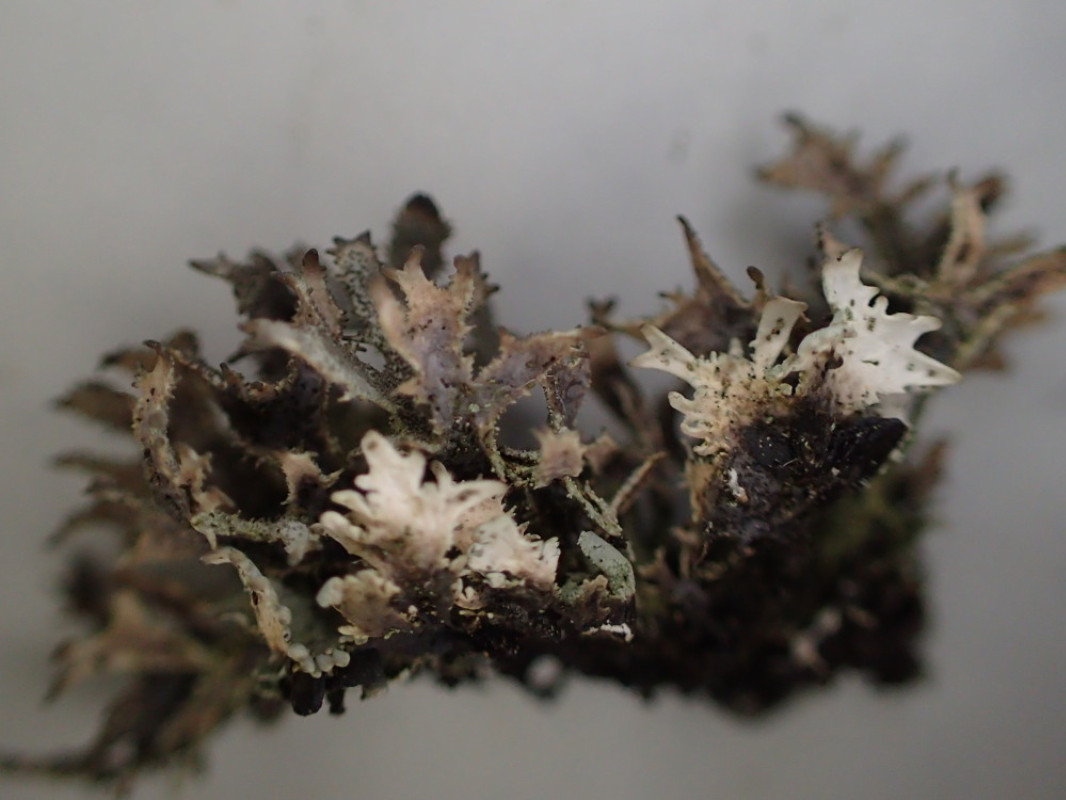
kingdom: Fungi
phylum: Ascomycota
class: Lecanoromycetes
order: Lecanorales
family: Parmeliaceae
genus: Pseudevernia
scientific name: Pseudevernia furfuracea
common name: grå fyrrelav
